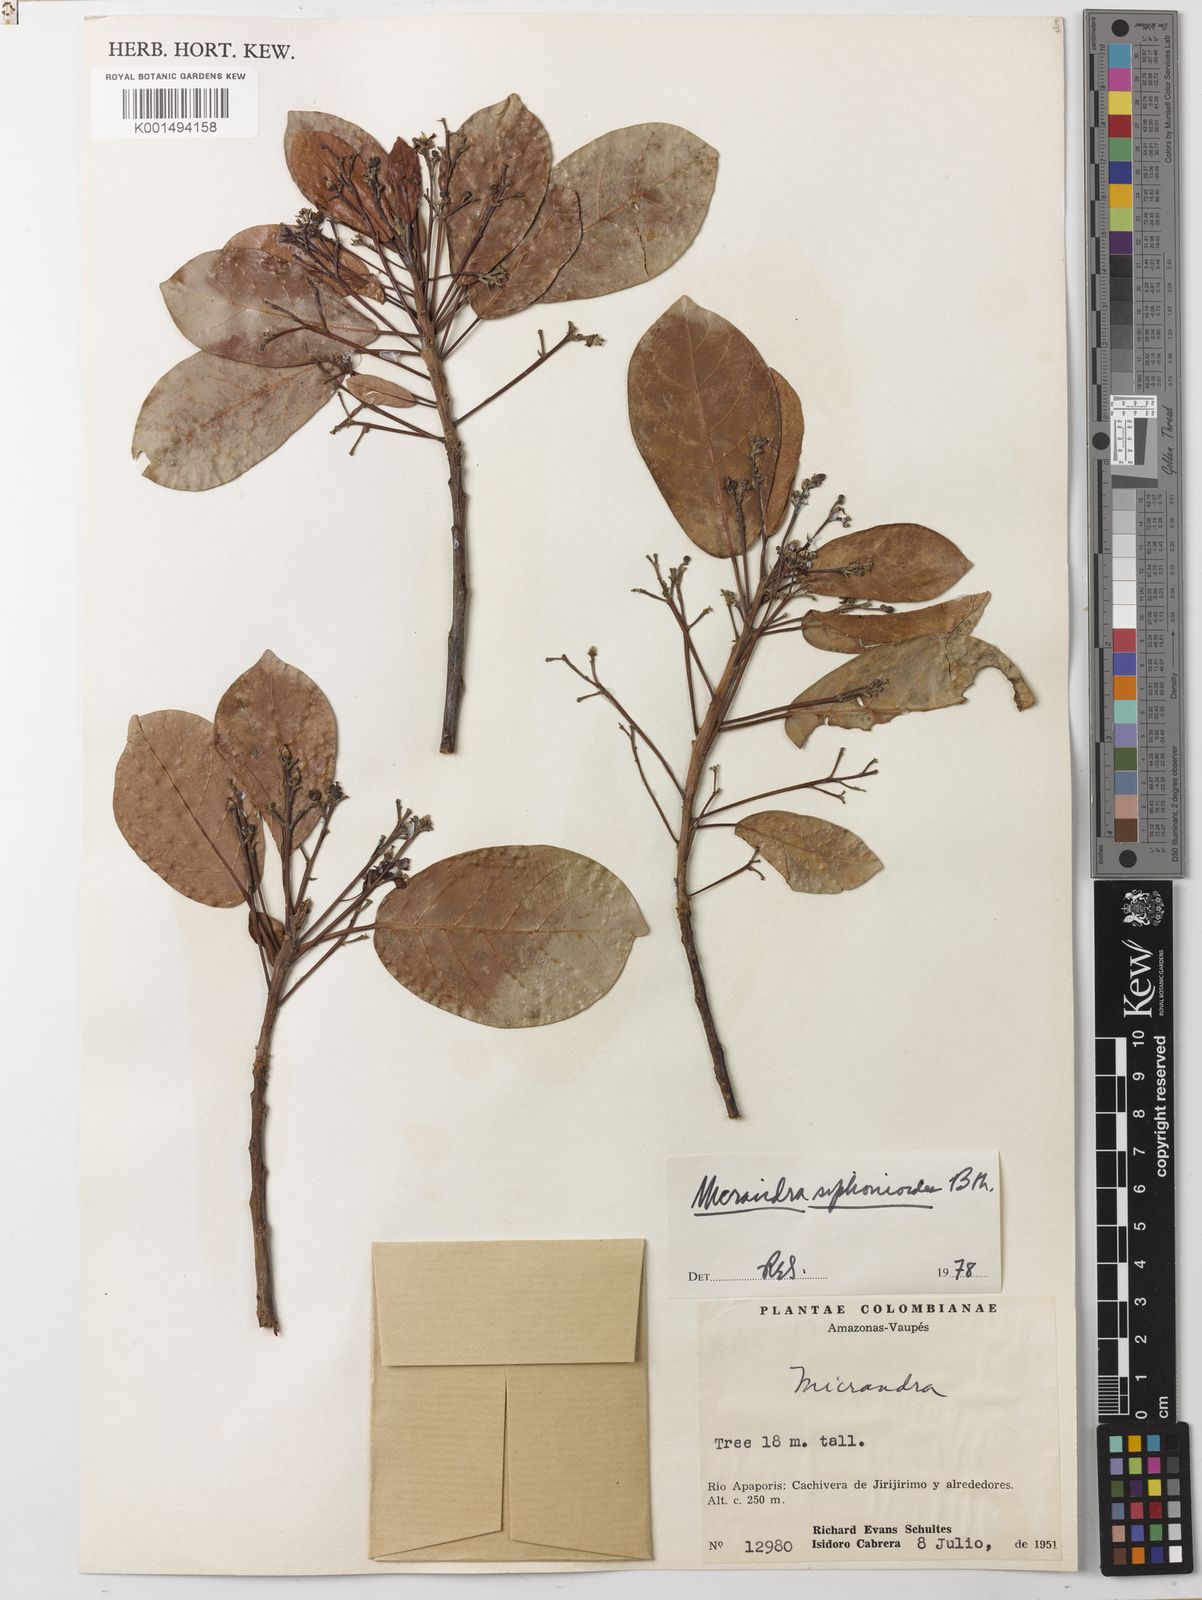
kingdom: Plantae
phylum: Tracheophyta
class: Magnoliopsida
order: Malpighiales
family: Euphorbiaceae
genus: Micrandra
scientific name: Micrandra siphonioides
